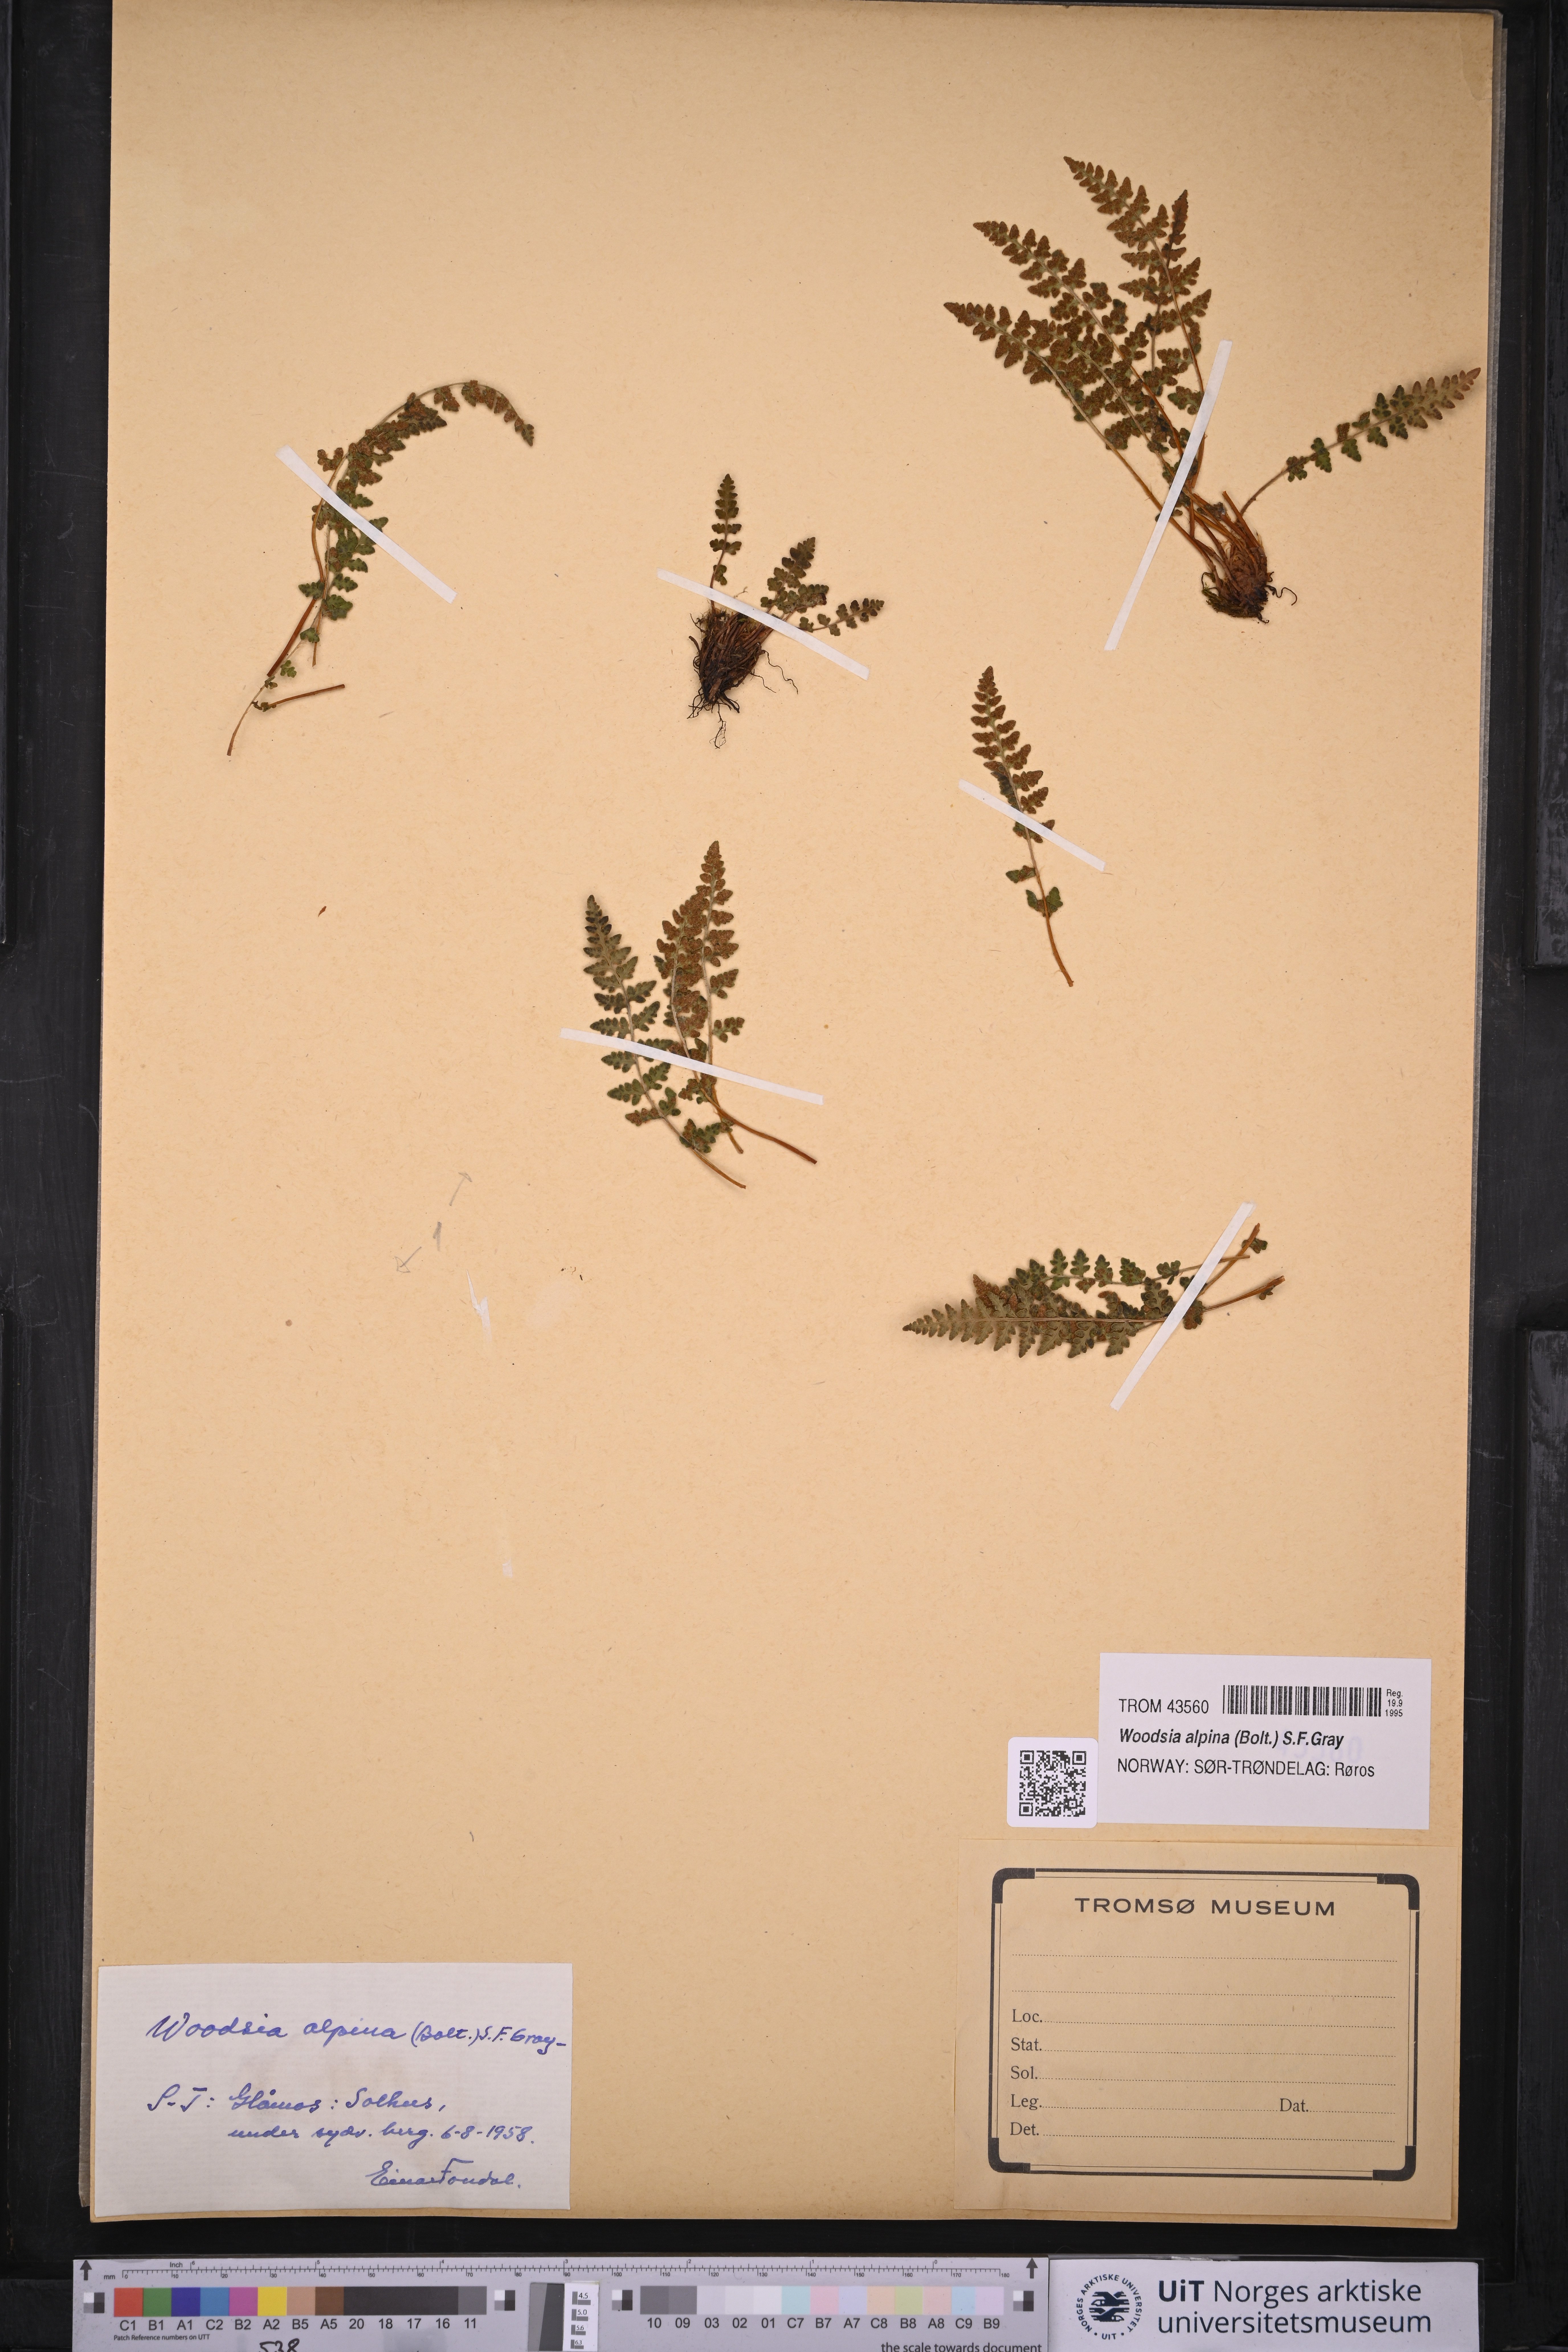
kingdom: Plantae
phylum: Tracheophyta
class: Polypodiopsida
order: Polypodiales
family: Woodsiaceae
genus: Woodsia
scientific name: Woodsia alpina
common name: Alpine woodsia
